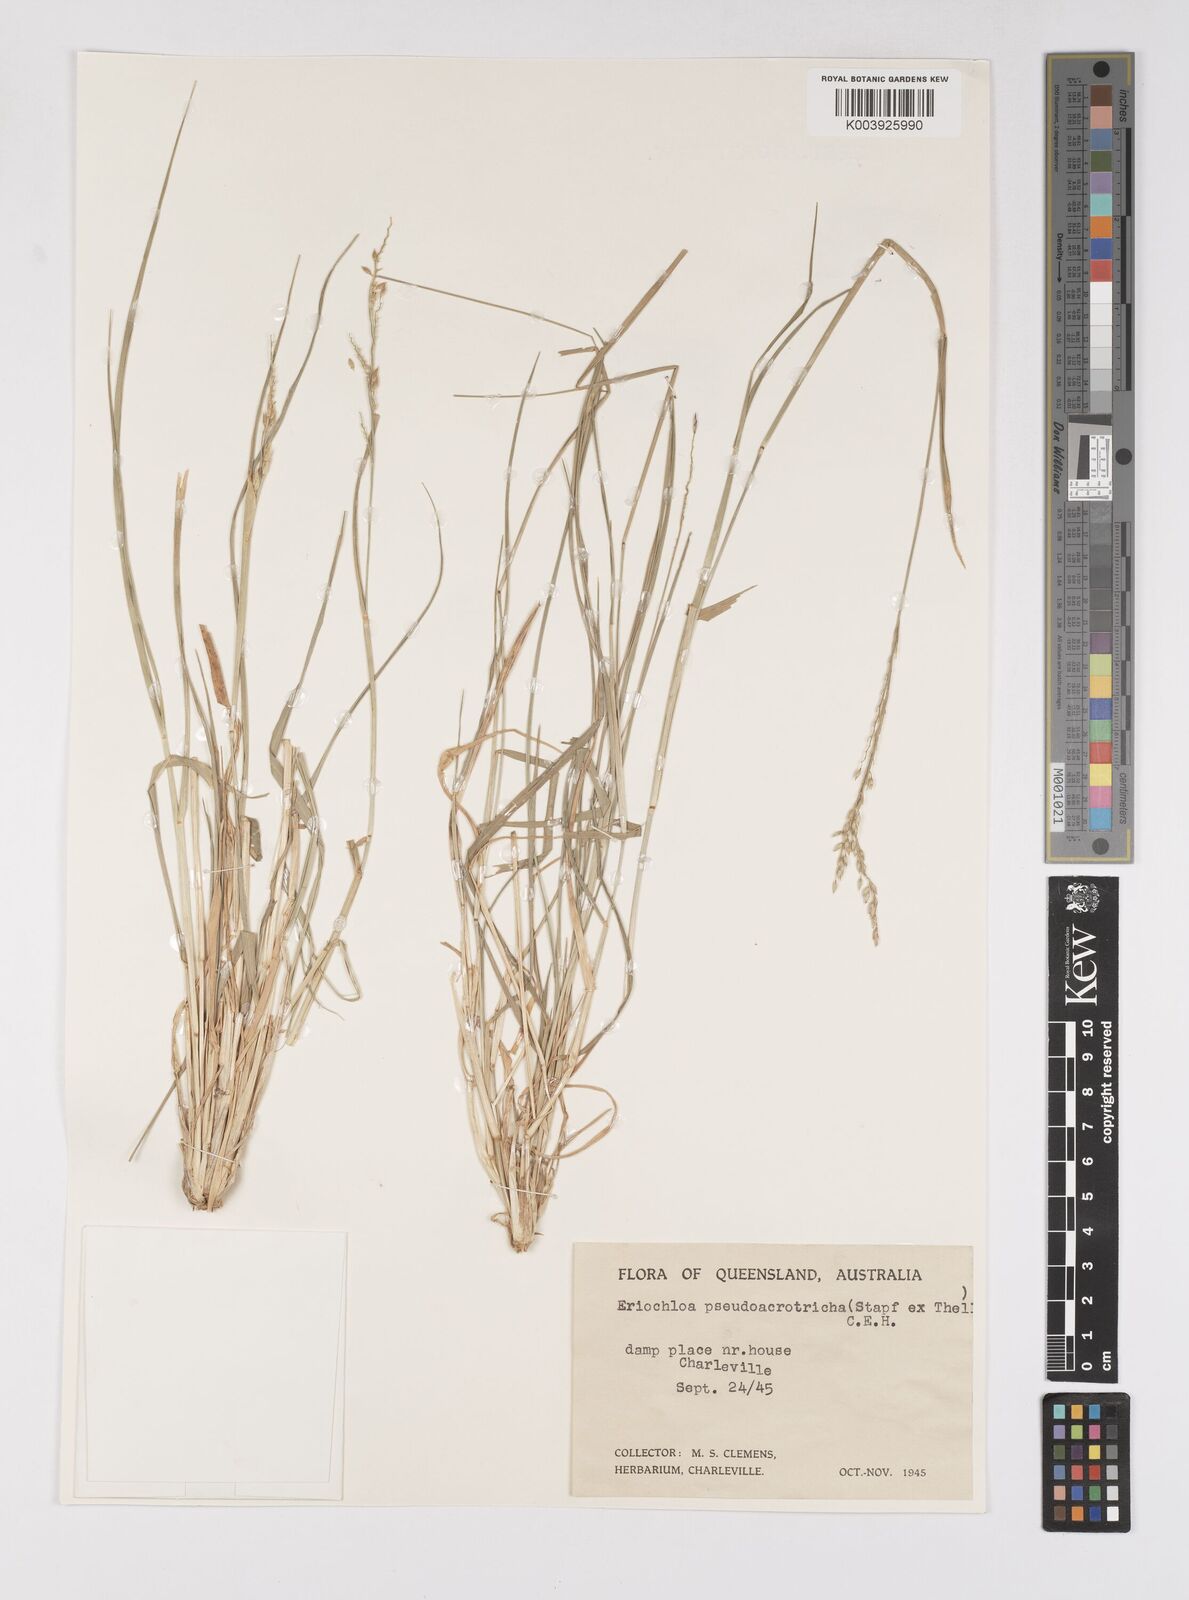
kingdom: Plantae
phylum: Tracheophyta
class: Liliopsida
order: Poales
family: Poaceae
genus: Eriochloa
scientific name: Eriochloa pseudoacrotricha
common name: Perennial cup-grass
